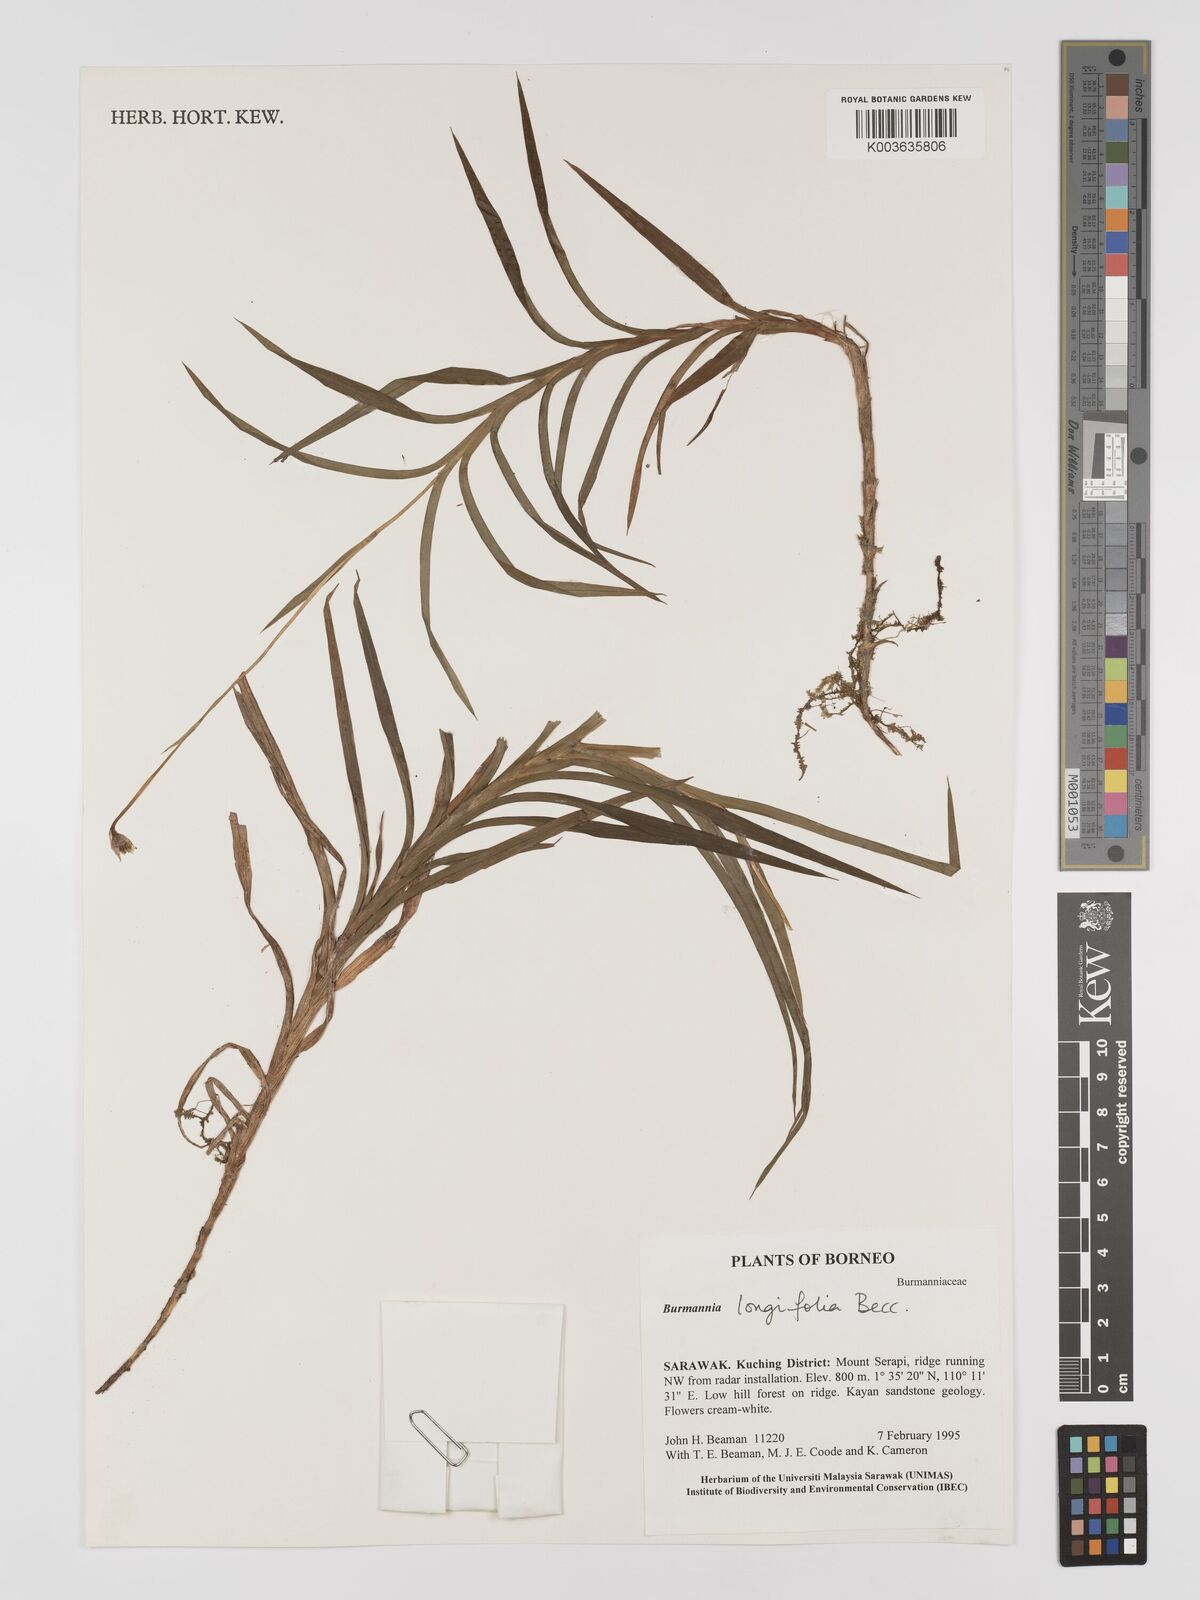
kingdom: Plantae
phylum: Tracheophyta
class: Liliopsida
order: Dioscoreales
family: Burmanniaceae
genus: Burmannia
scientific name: Burmannia longifolia
